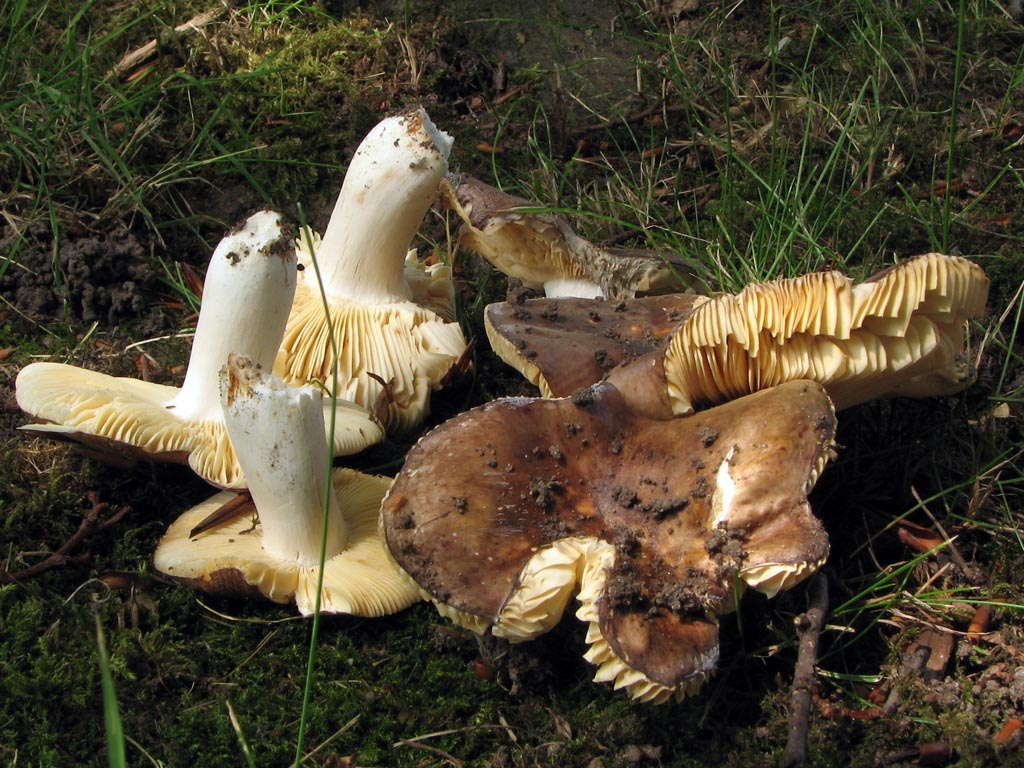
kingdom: Fungi
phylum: Basidiomycota
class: Agaricomycetes
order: Russulales
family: Russulaceae
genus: Russula
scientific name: Russula carpini
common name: avnbøg-skørhat
